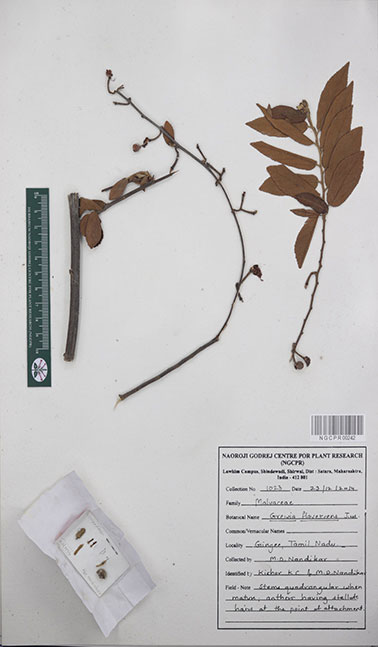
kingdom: Plantae
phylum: Tracheophyta
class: Magnoliopsida
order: Malvales
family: Malvaceae
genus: Grewia
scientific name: Grewia flavescens
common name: Sandpaper raisin
